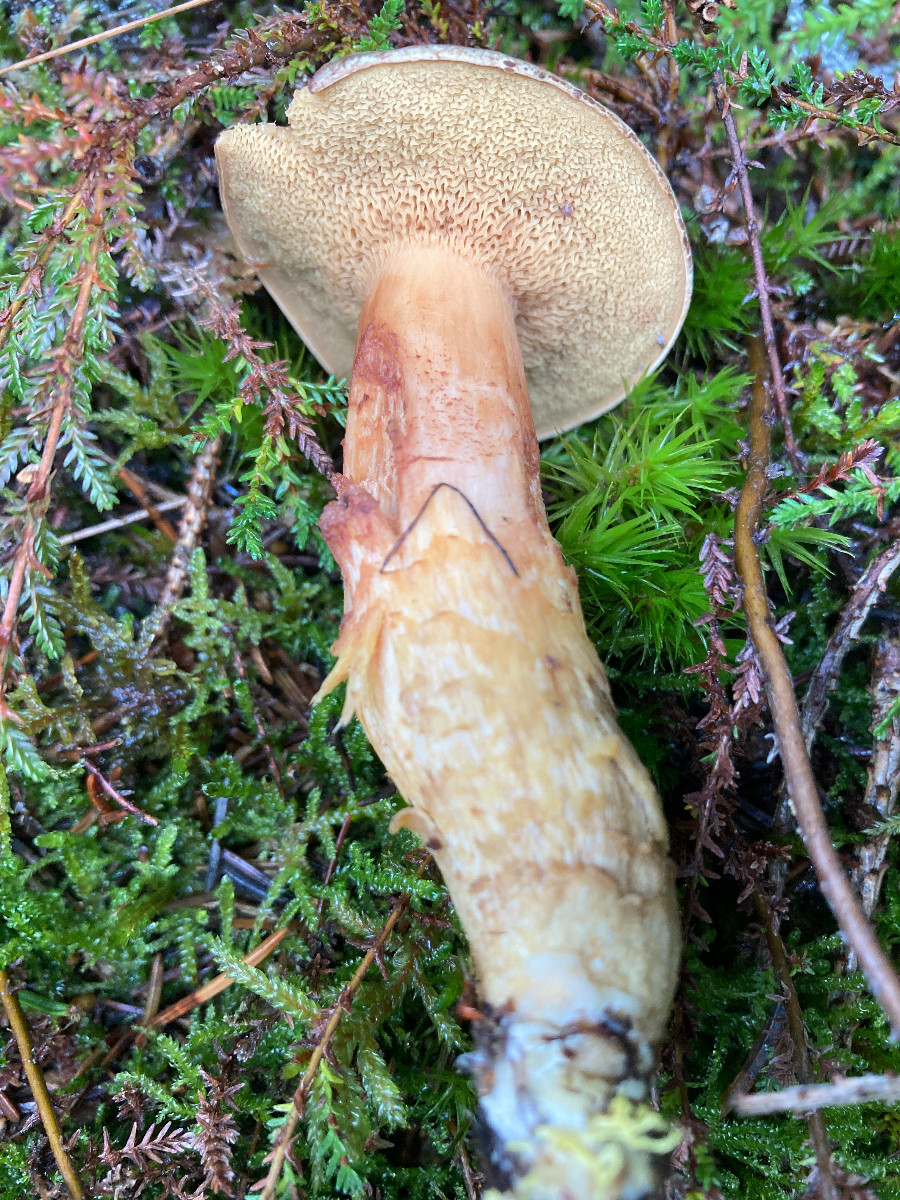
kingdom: Fungi
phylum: Basidiomycota
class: Agaricomycetes
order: Boletales
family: Boletaceae
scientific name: Boletaceae
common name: rørhatfamilien
